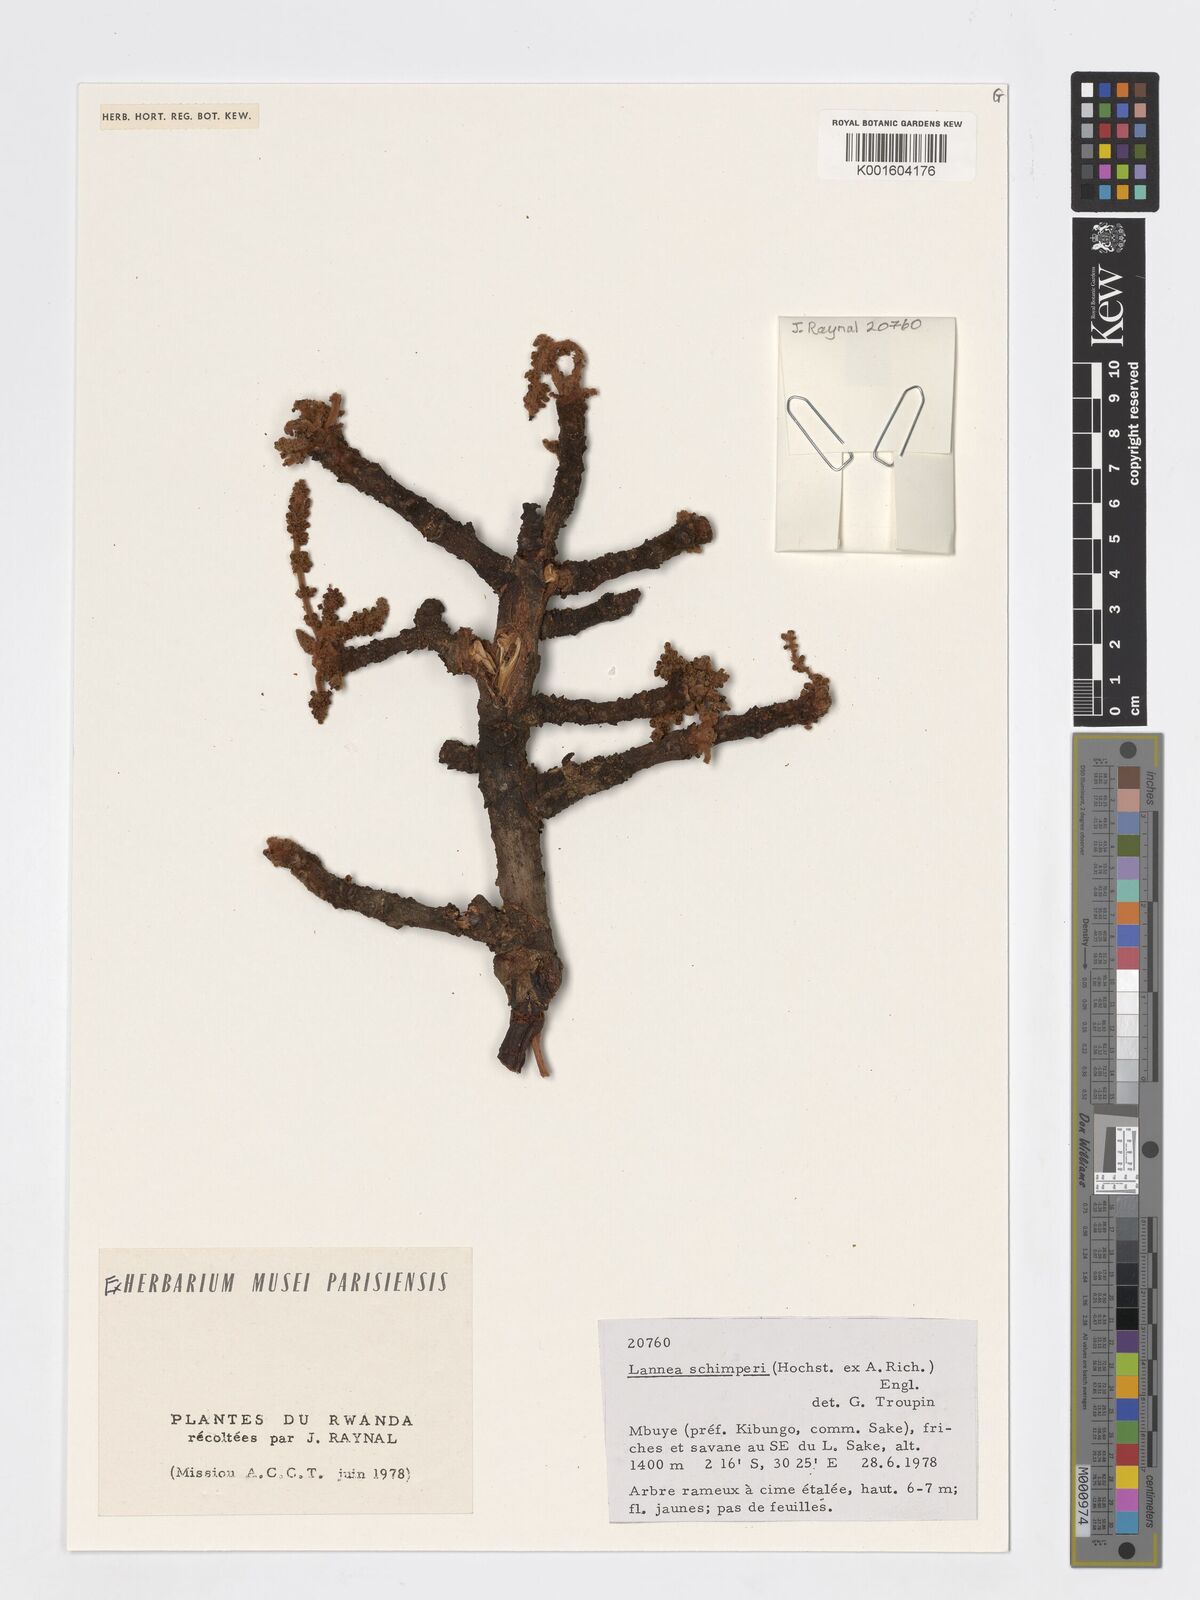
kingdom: Plantae
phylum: Tracheophyta
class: Magnoliopsida
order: Sapindales
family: Anacardiaceae
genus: Lannea
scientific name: Lannea schimperi
